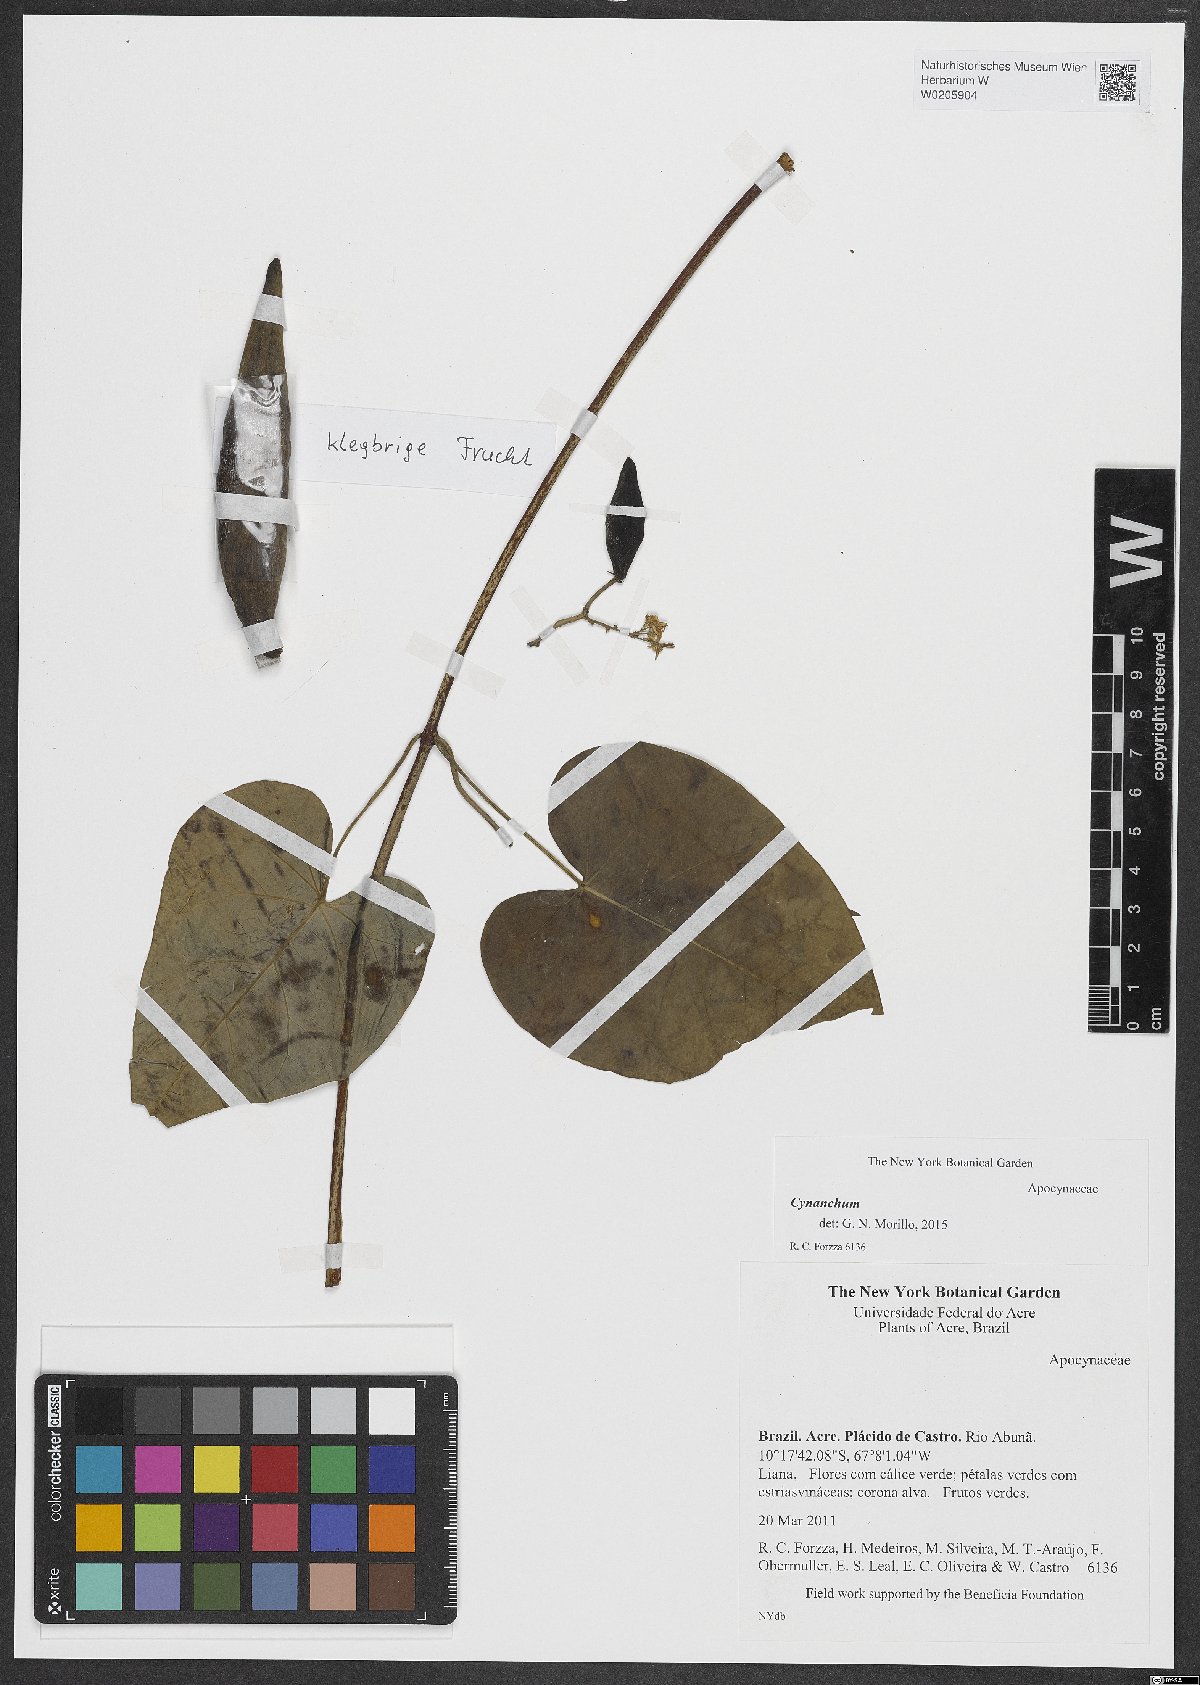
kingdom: Plantae
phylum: Tracheophyta
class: Magnoliopsida
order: Gentianales
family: Apocynaceae
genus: Cynanchum
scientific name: Cynanchum
